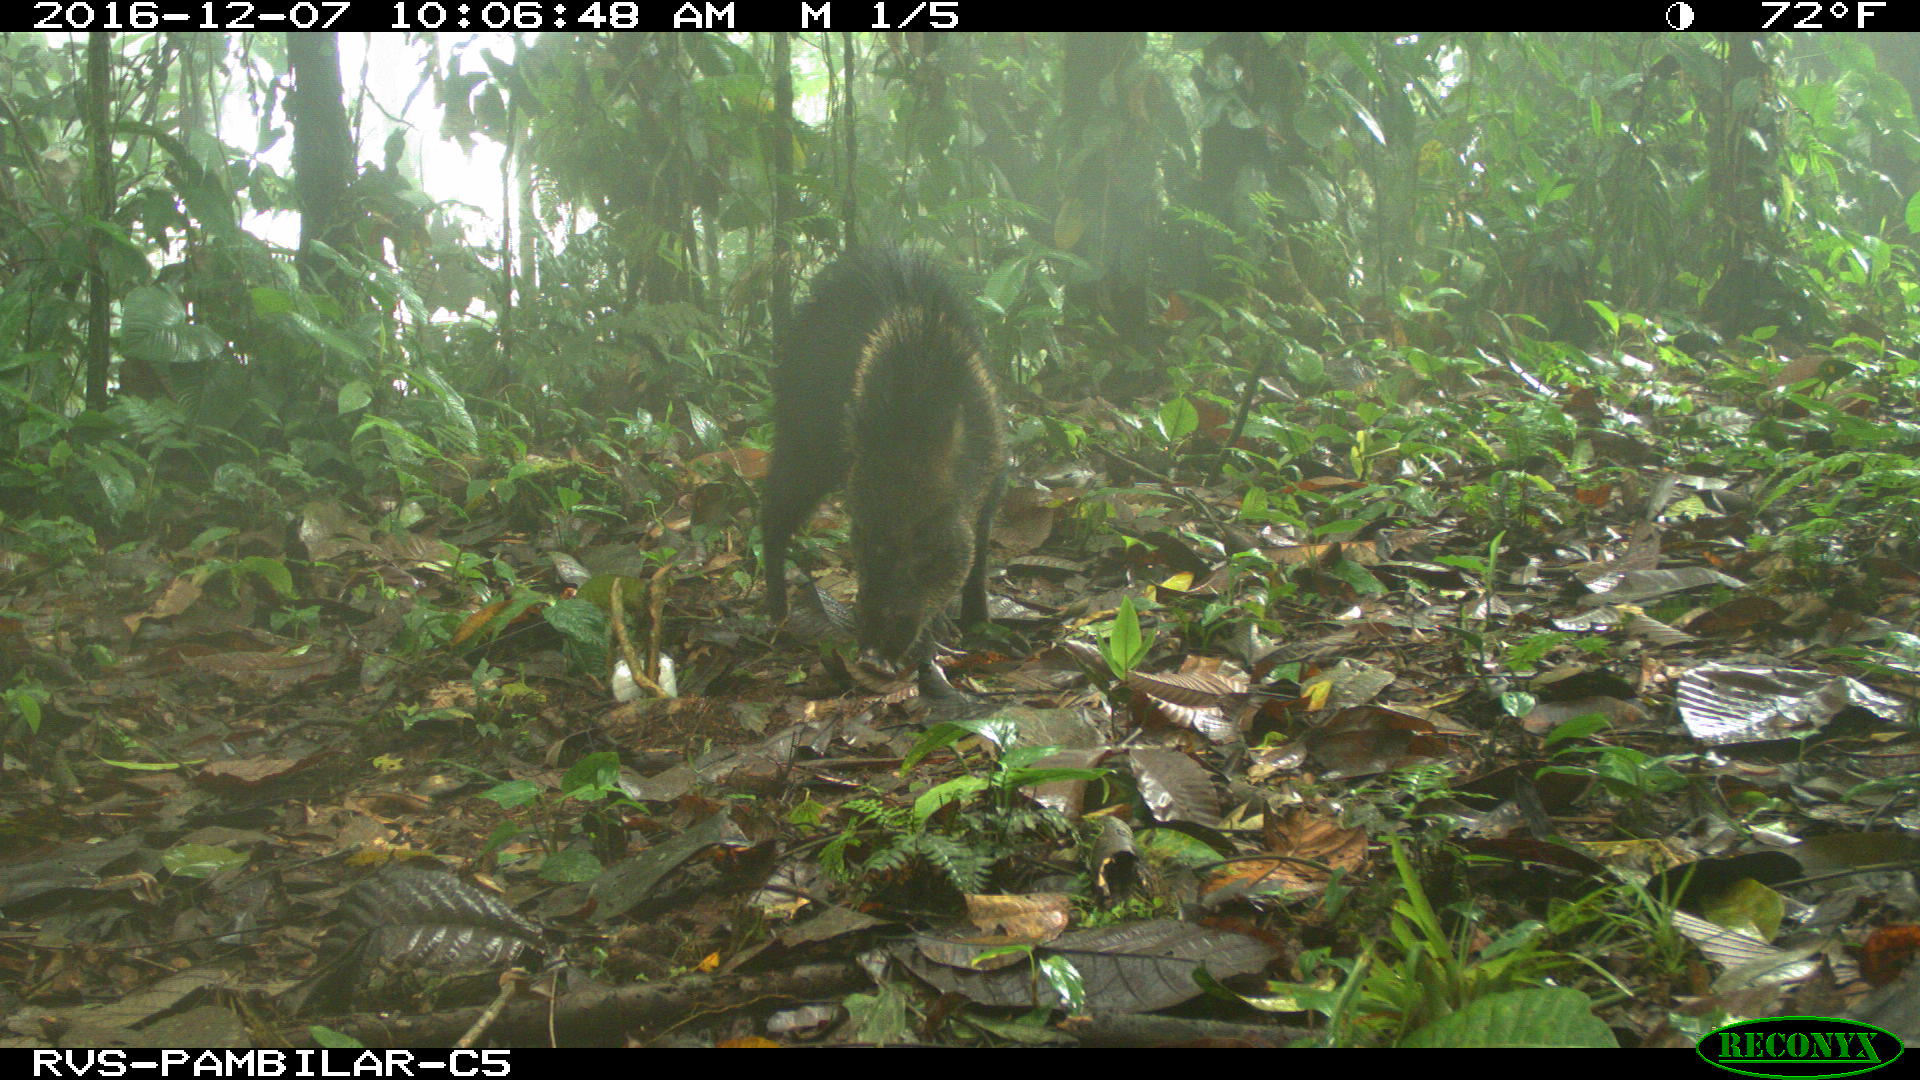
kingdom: Animalia
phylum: Chordata
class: Mammalia
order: Artiodactyla
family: Tayassuidae
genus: Pecari
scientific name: Pecari tajacu
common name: Collared peccary
